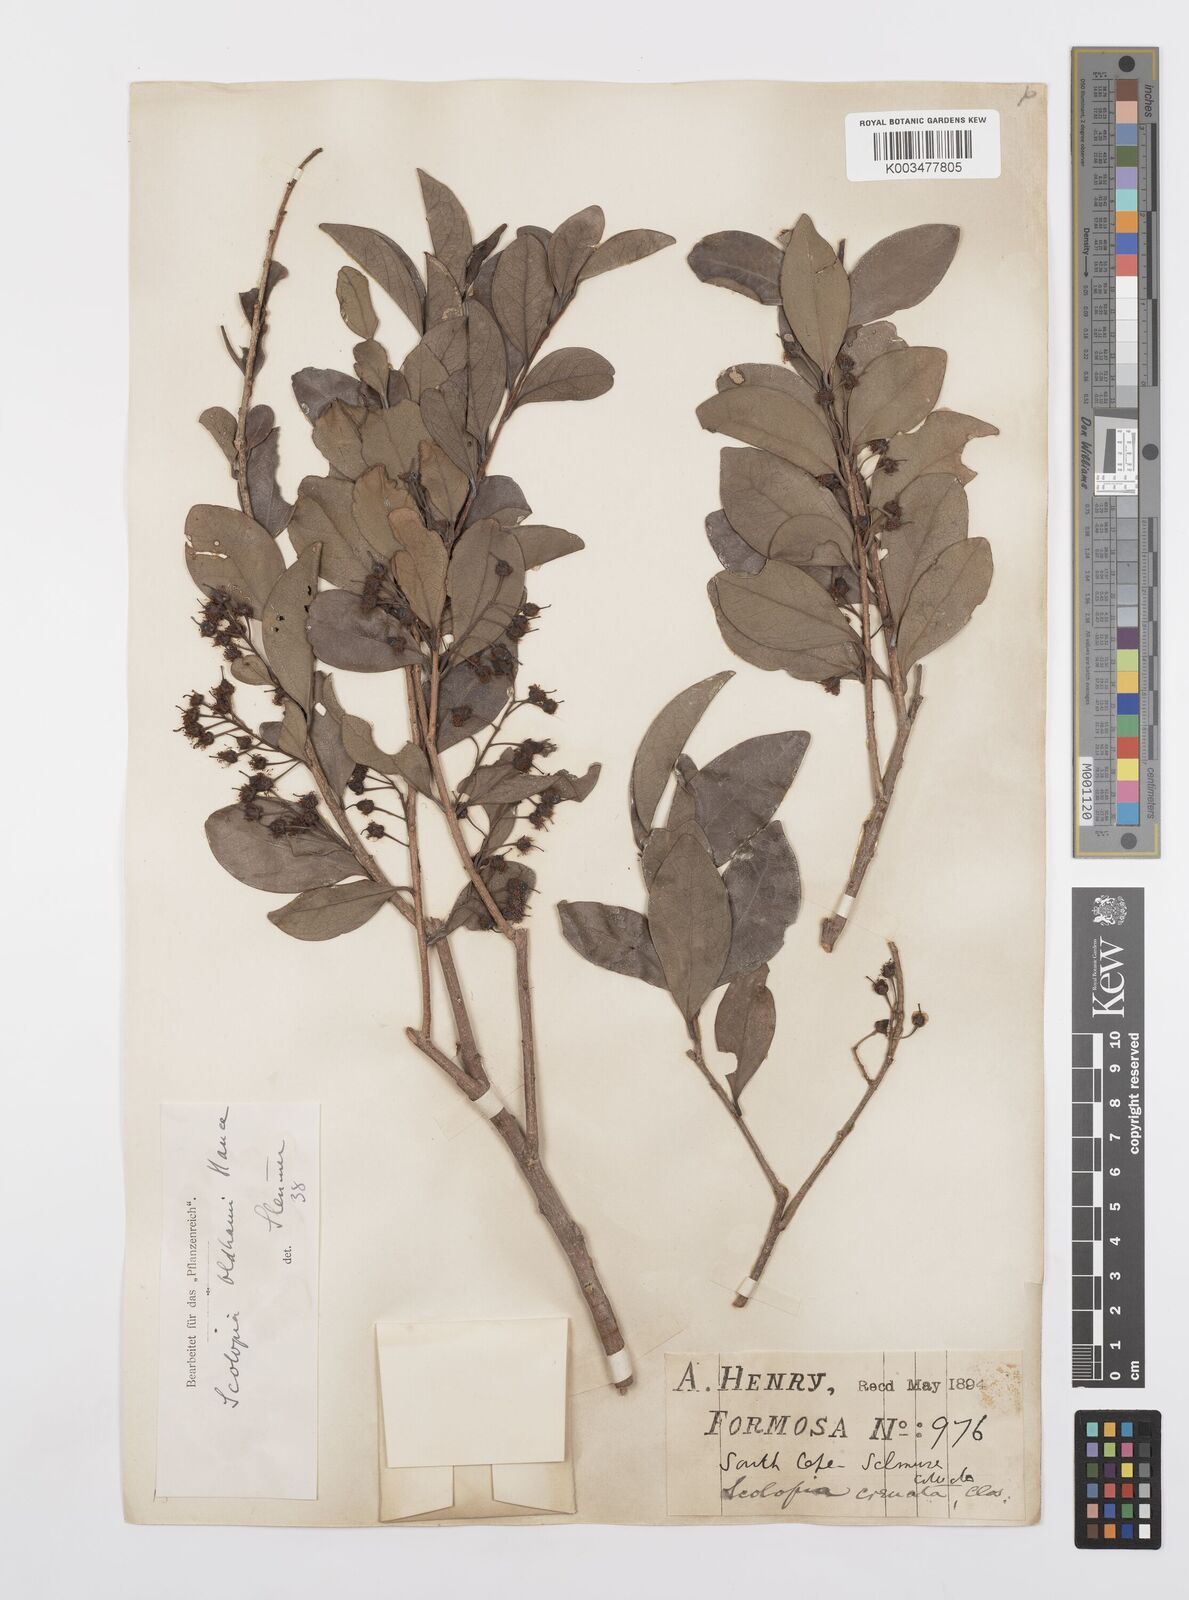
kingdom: Plantae
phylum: Tracheophyta
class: Magnoliopsida
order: Malpighiales
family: Salicaceae
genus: Scolopia
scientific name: Scolopia oldhamii
